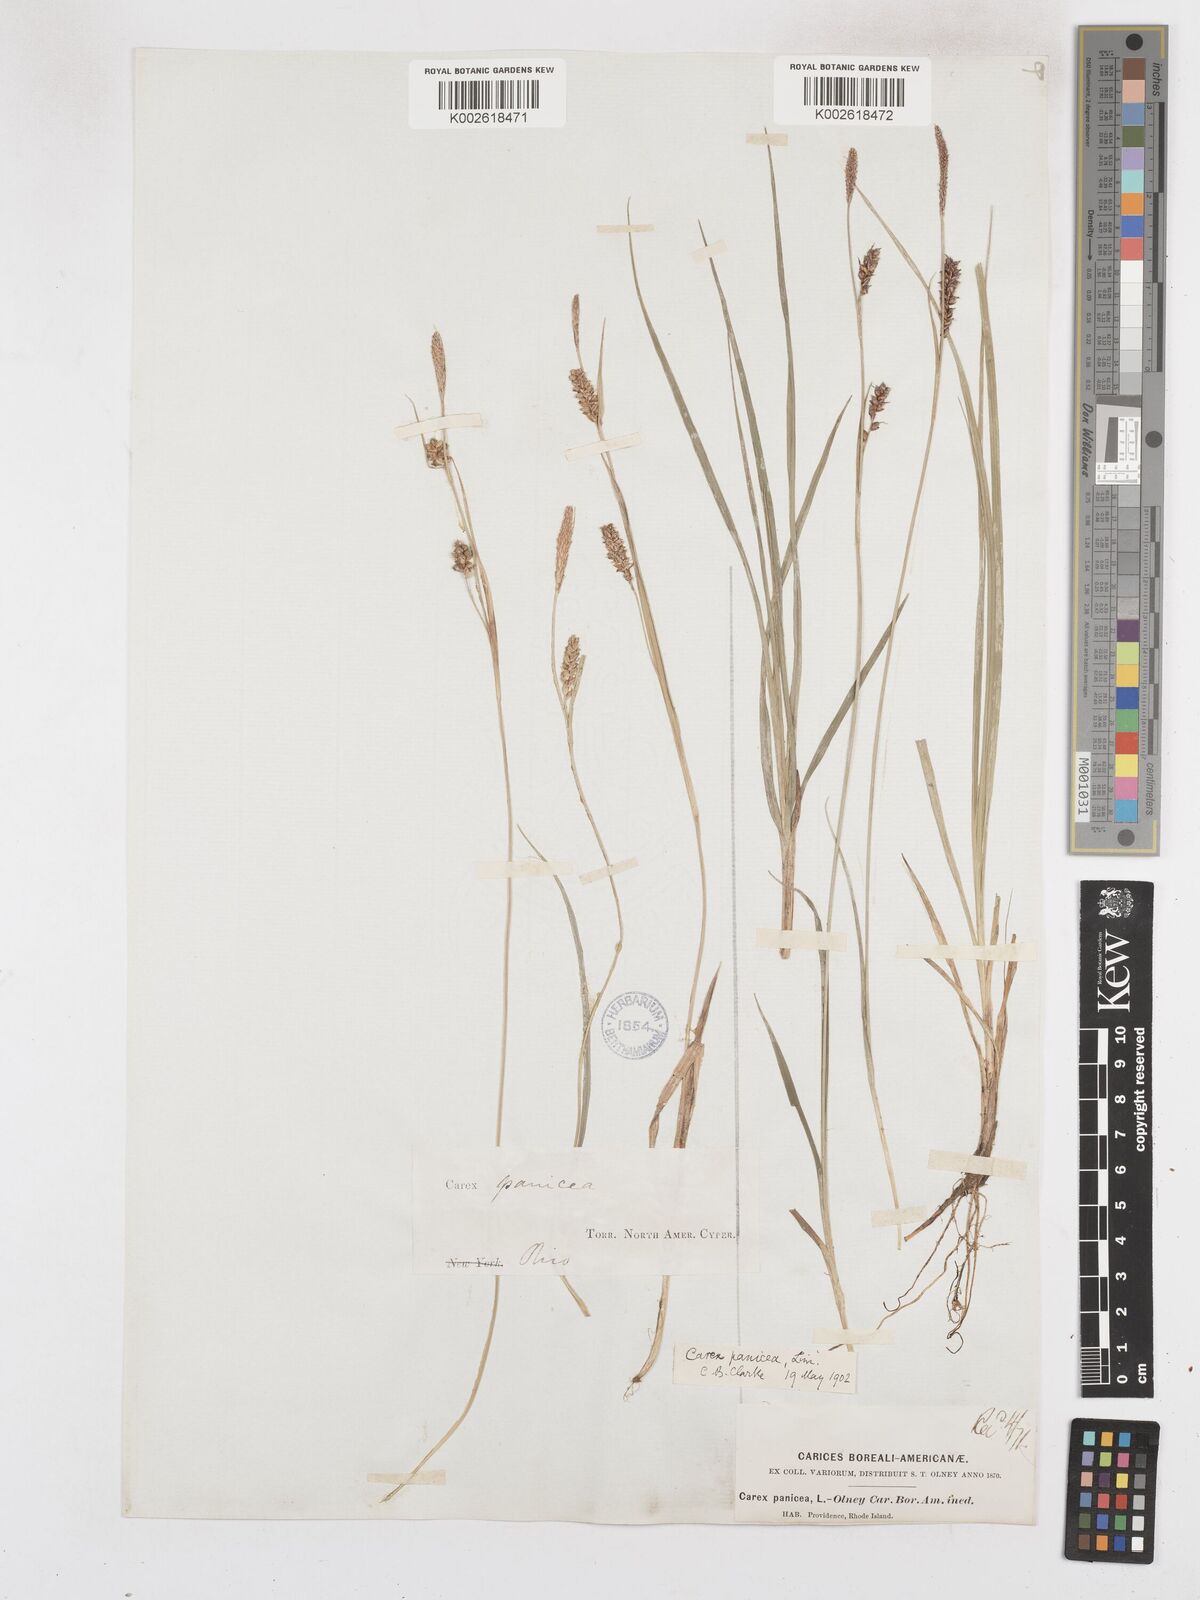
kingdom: Plantae
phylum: Tracheophyta
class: Liliopsida
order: Poales
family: Cyperaceae
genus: Carex
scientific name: Carex panicea
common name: Carnation sedge
